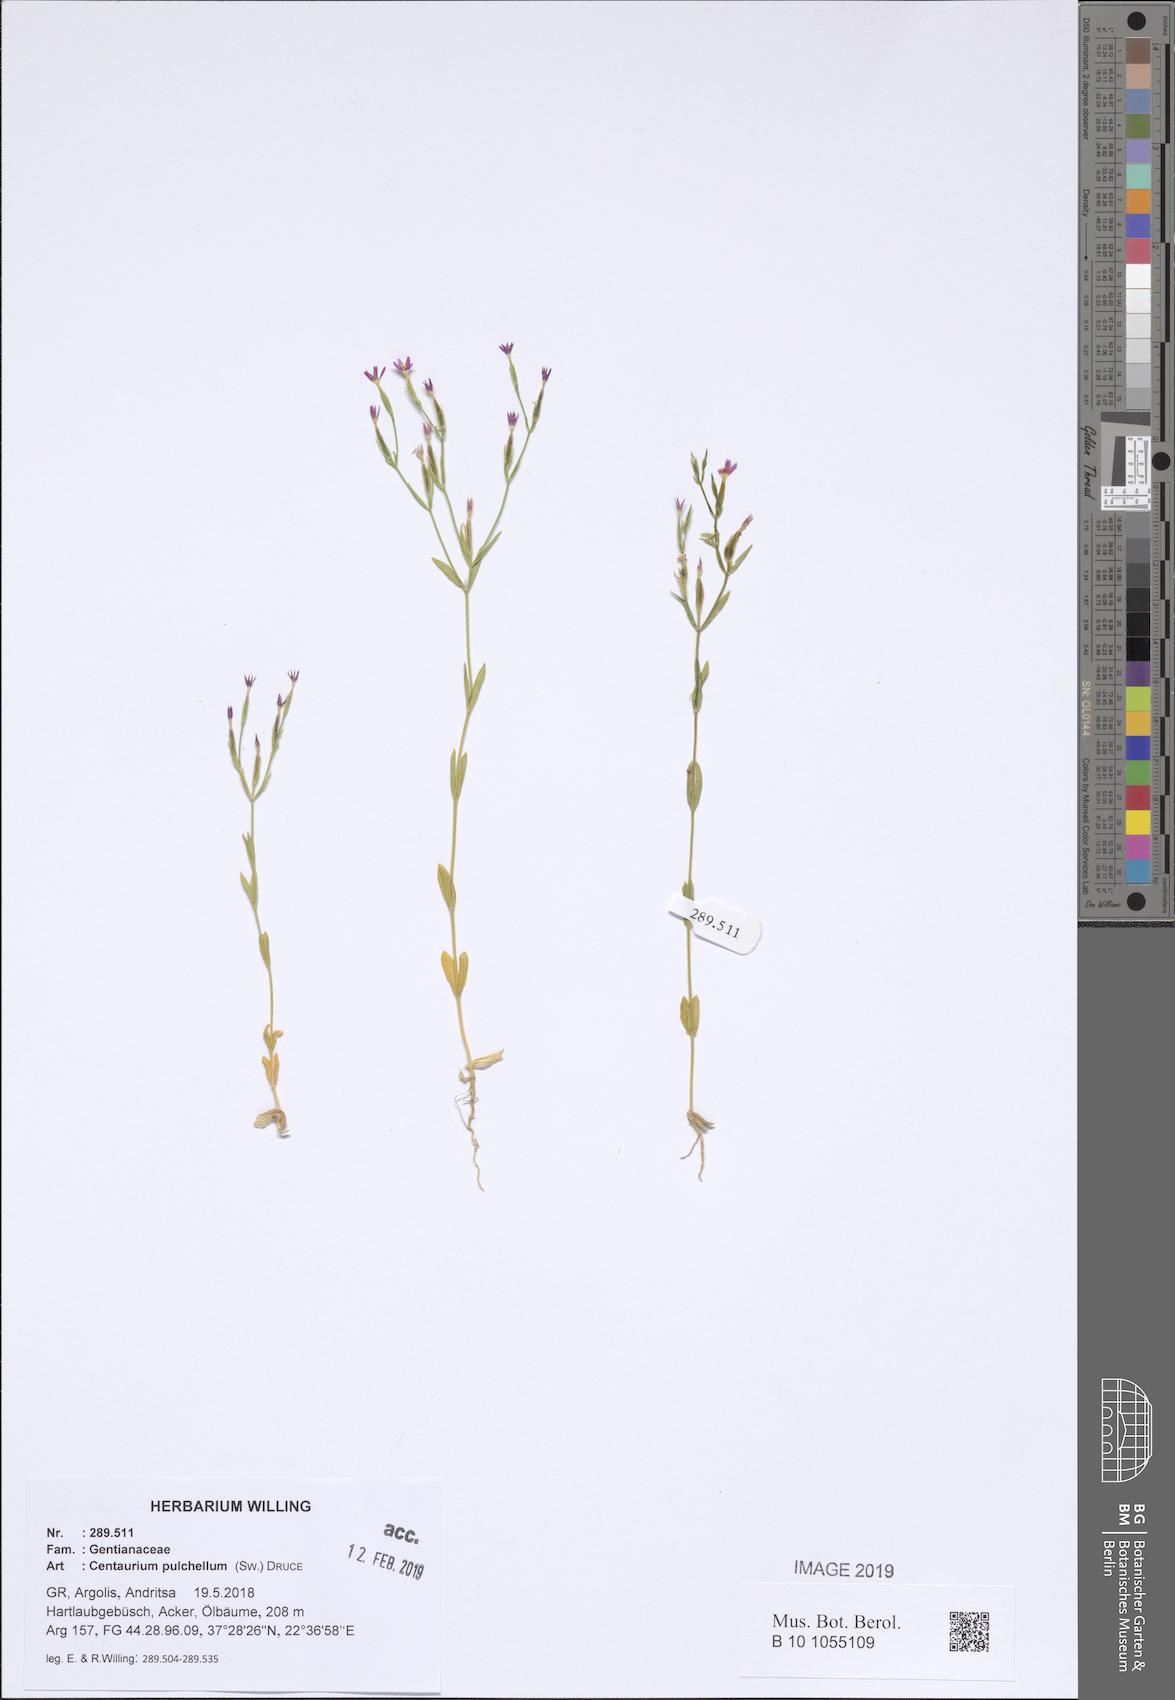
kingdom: Plantae
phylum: Tracheophyta
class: Magnoliopsida
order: Gentianales
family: Gentianaceae
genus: Centaurium
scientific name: Centaurium pulchellum
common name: Lesser centaury
